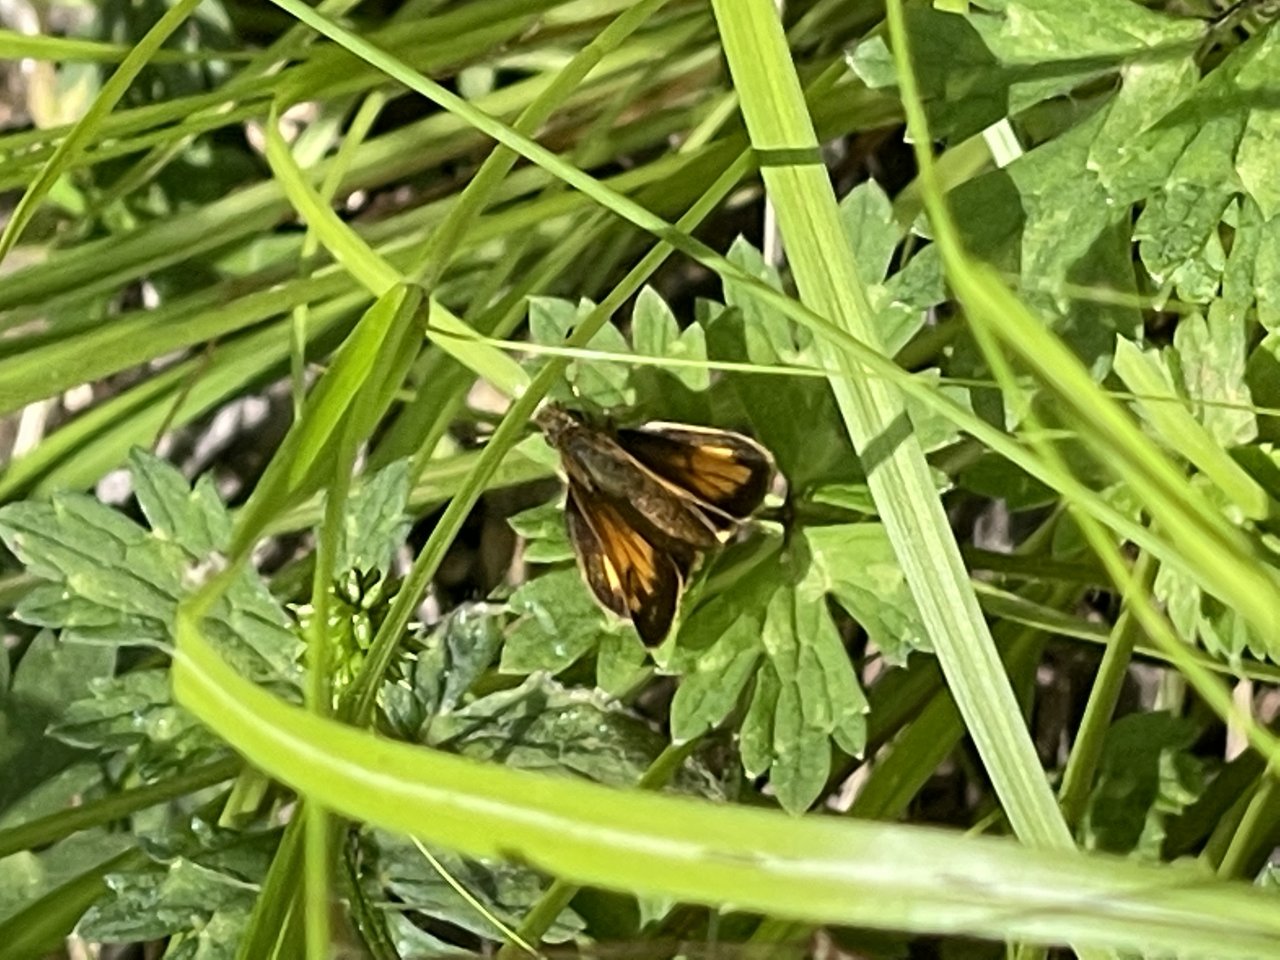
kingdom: Animalia
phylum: Arthropoda
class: Insecta
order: Lepidoptera
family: Hesperiidae
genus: Lon
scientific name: Lon hobomok
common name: Hobomok Skipper
